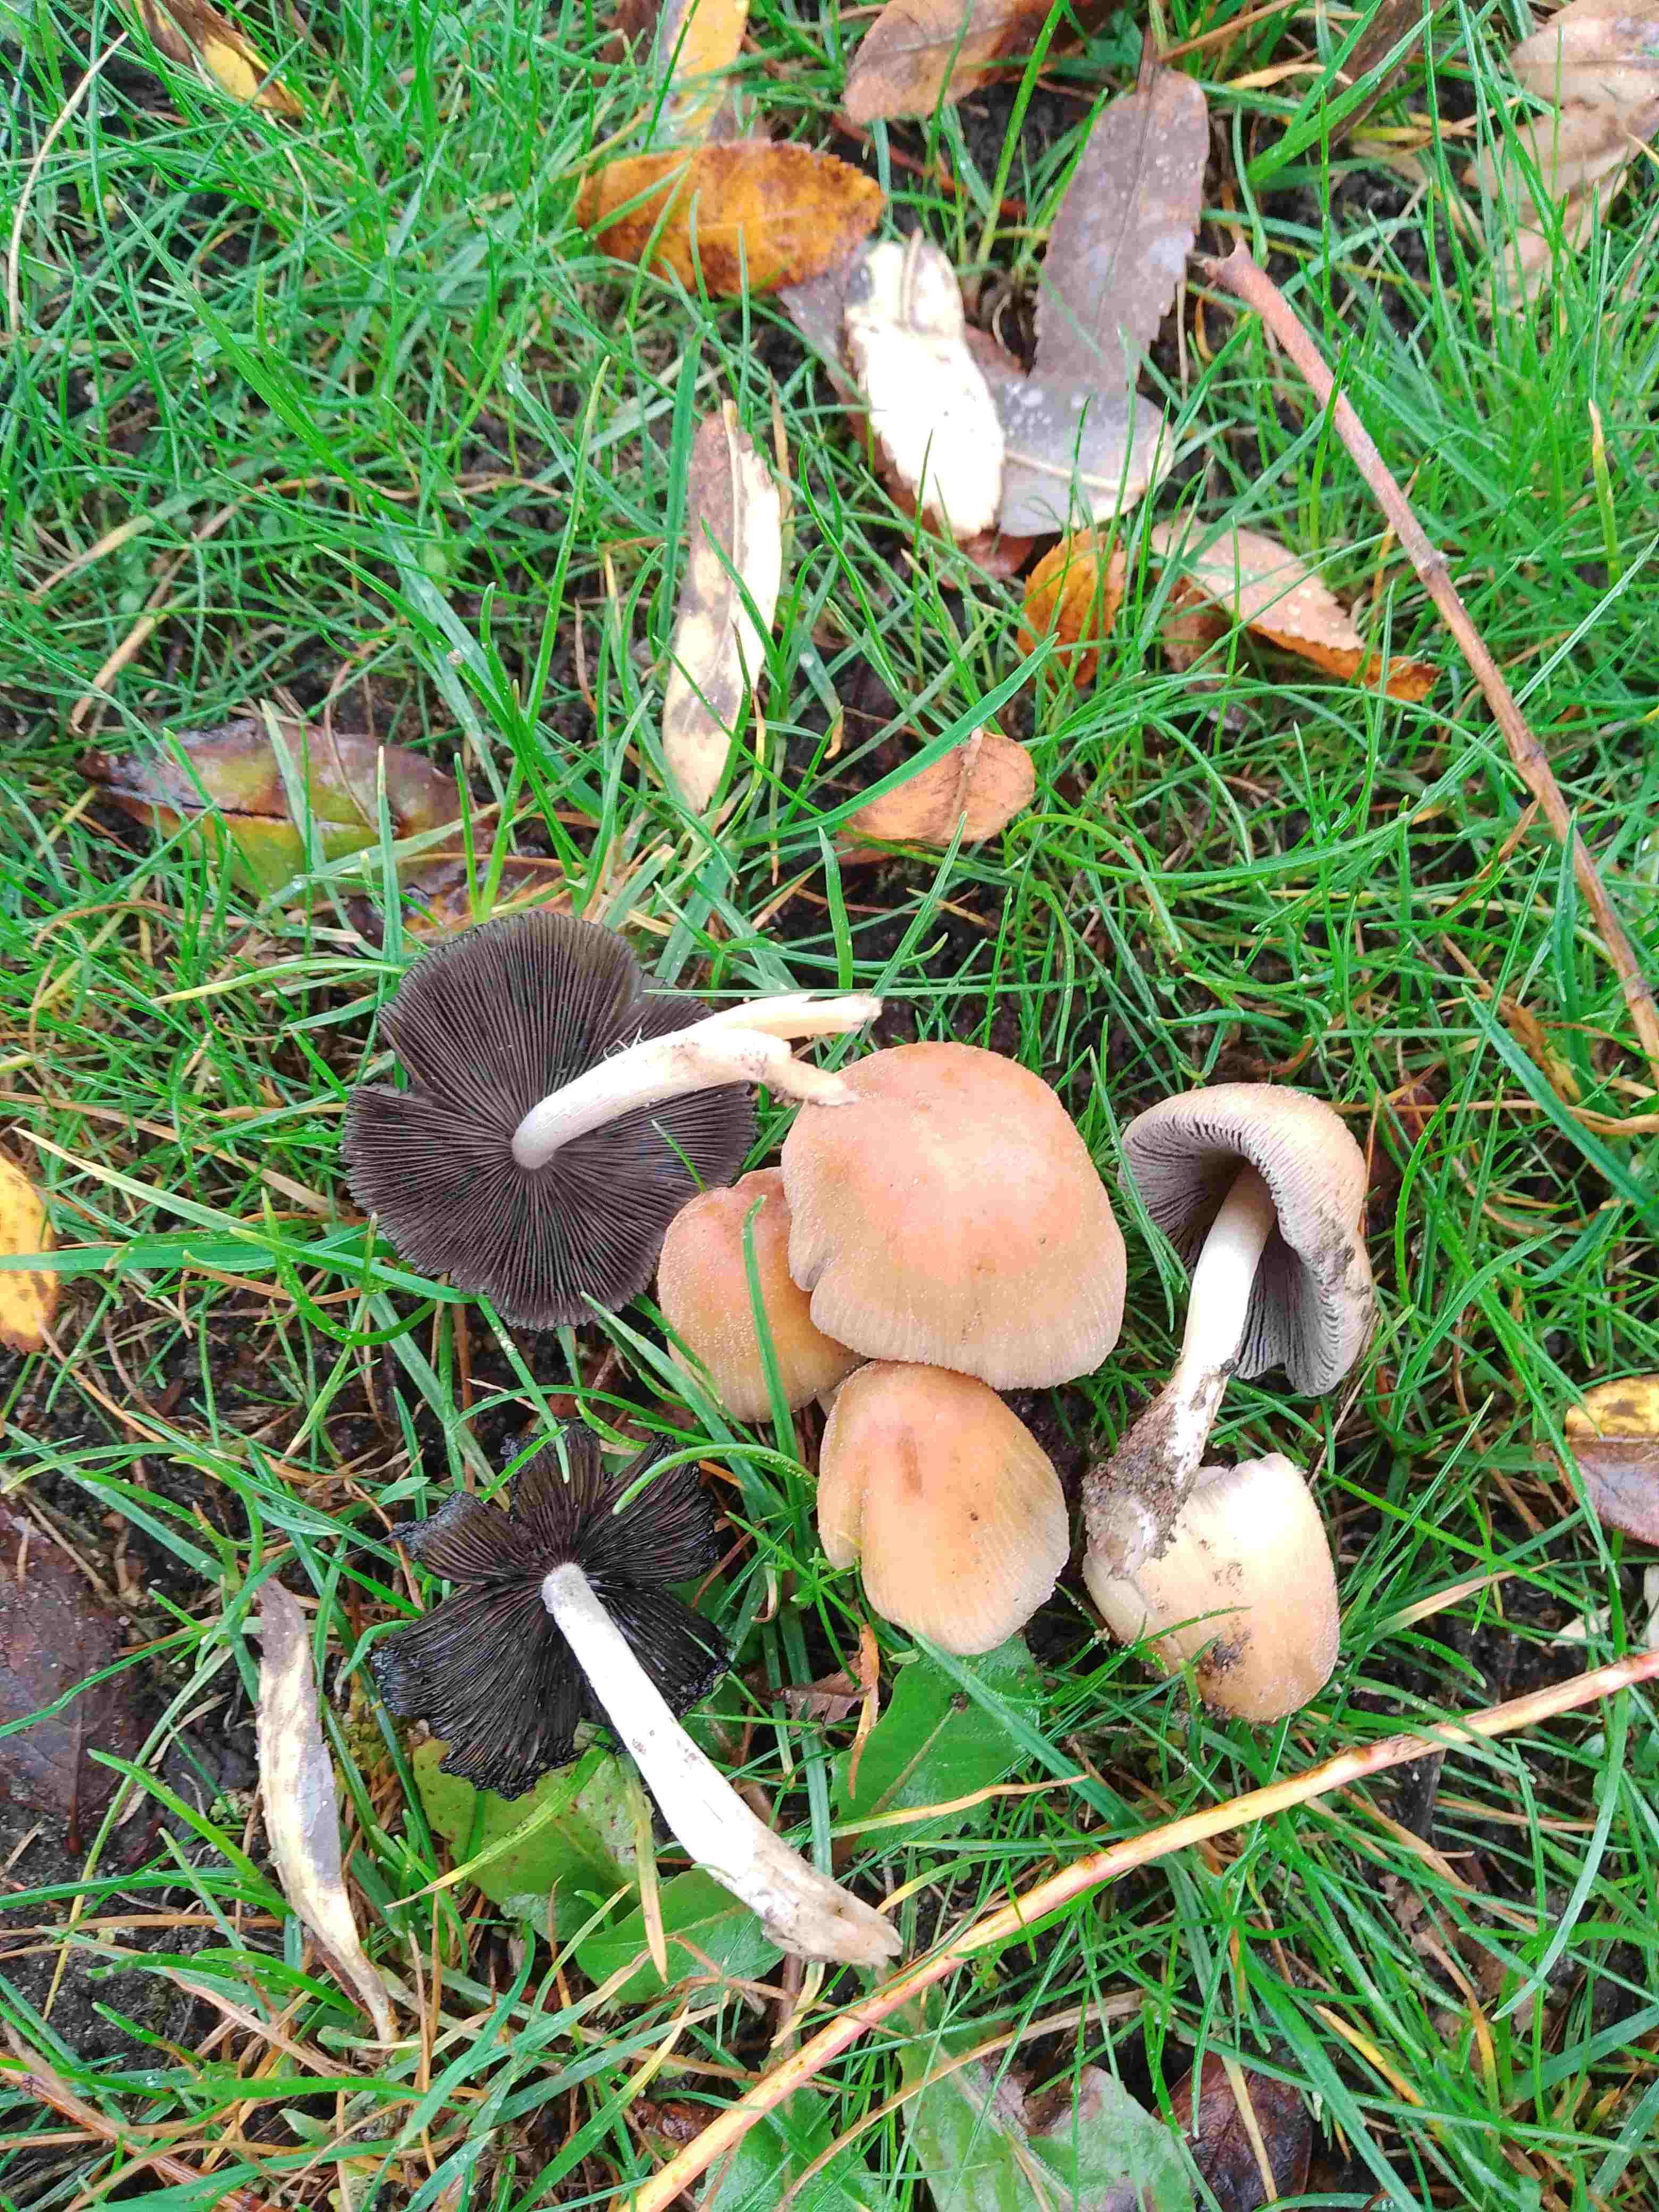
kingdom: Fungi
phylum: Basidiomycota
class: Agaricomycetes
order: Agaricales
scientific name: Agaricales
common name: champignonordenen
